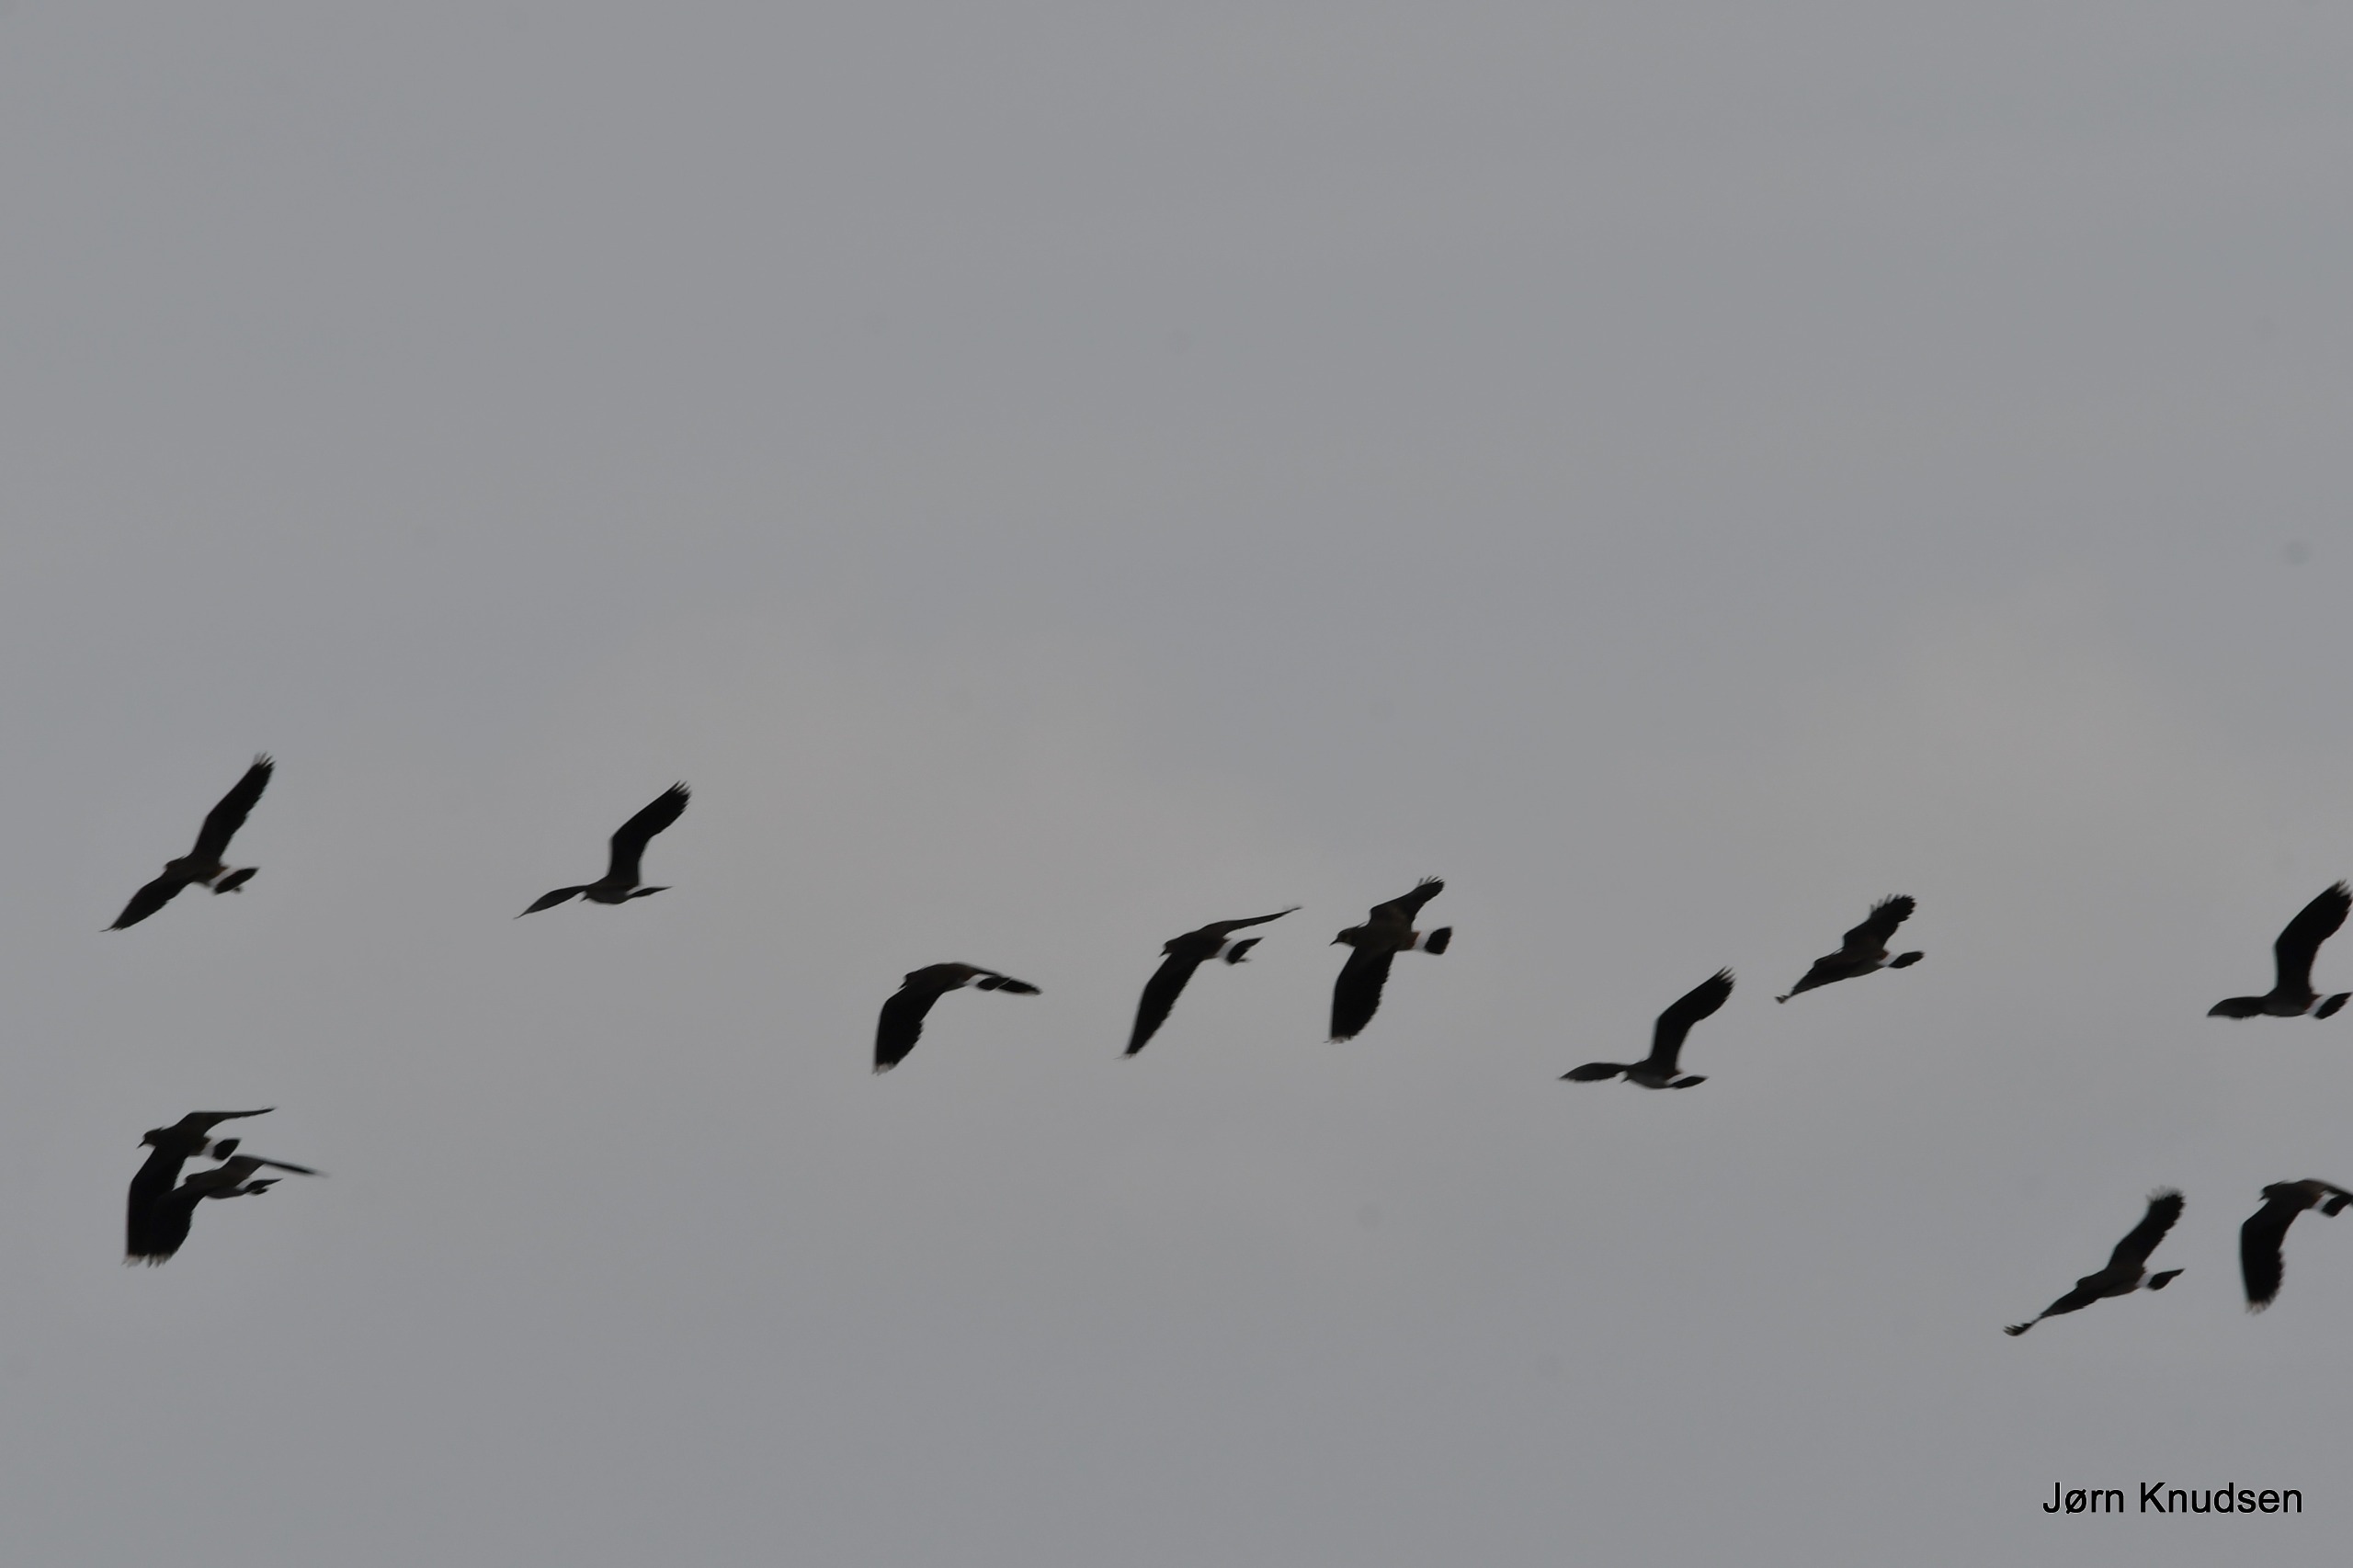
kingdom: Animalia
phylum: Chordata
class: Aves
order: Charadriiformes
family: Charadriidae
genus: Vanellus
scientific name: Vanellus vanellus
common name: Vibe
